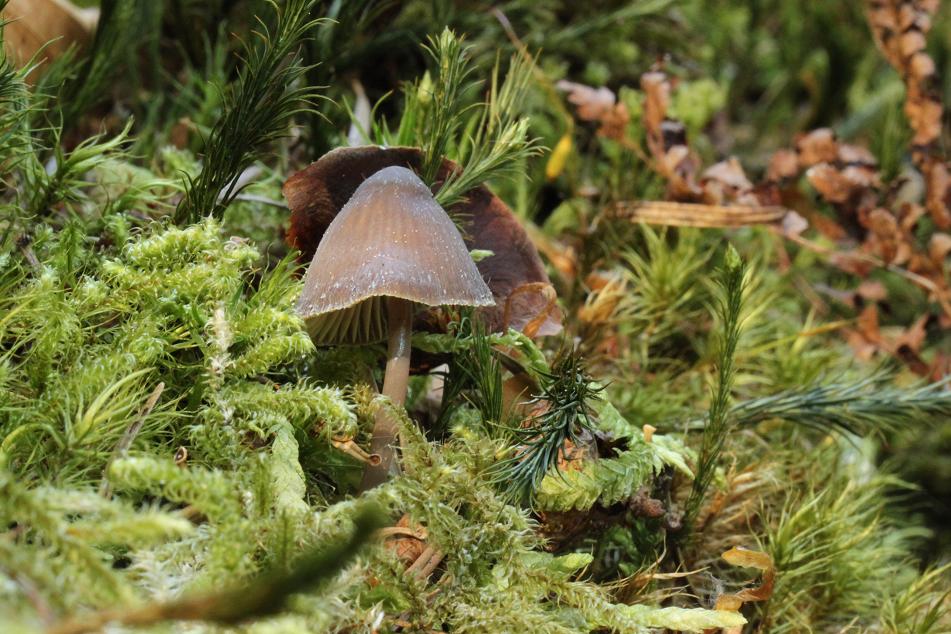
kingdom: Fungi
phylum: Basidiomycota
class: Agaricomycetes
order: Agaricales
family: Mycenaceae
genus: Mycena
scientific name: Mycena silvae-nigrae
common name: tidlig huesvamp
